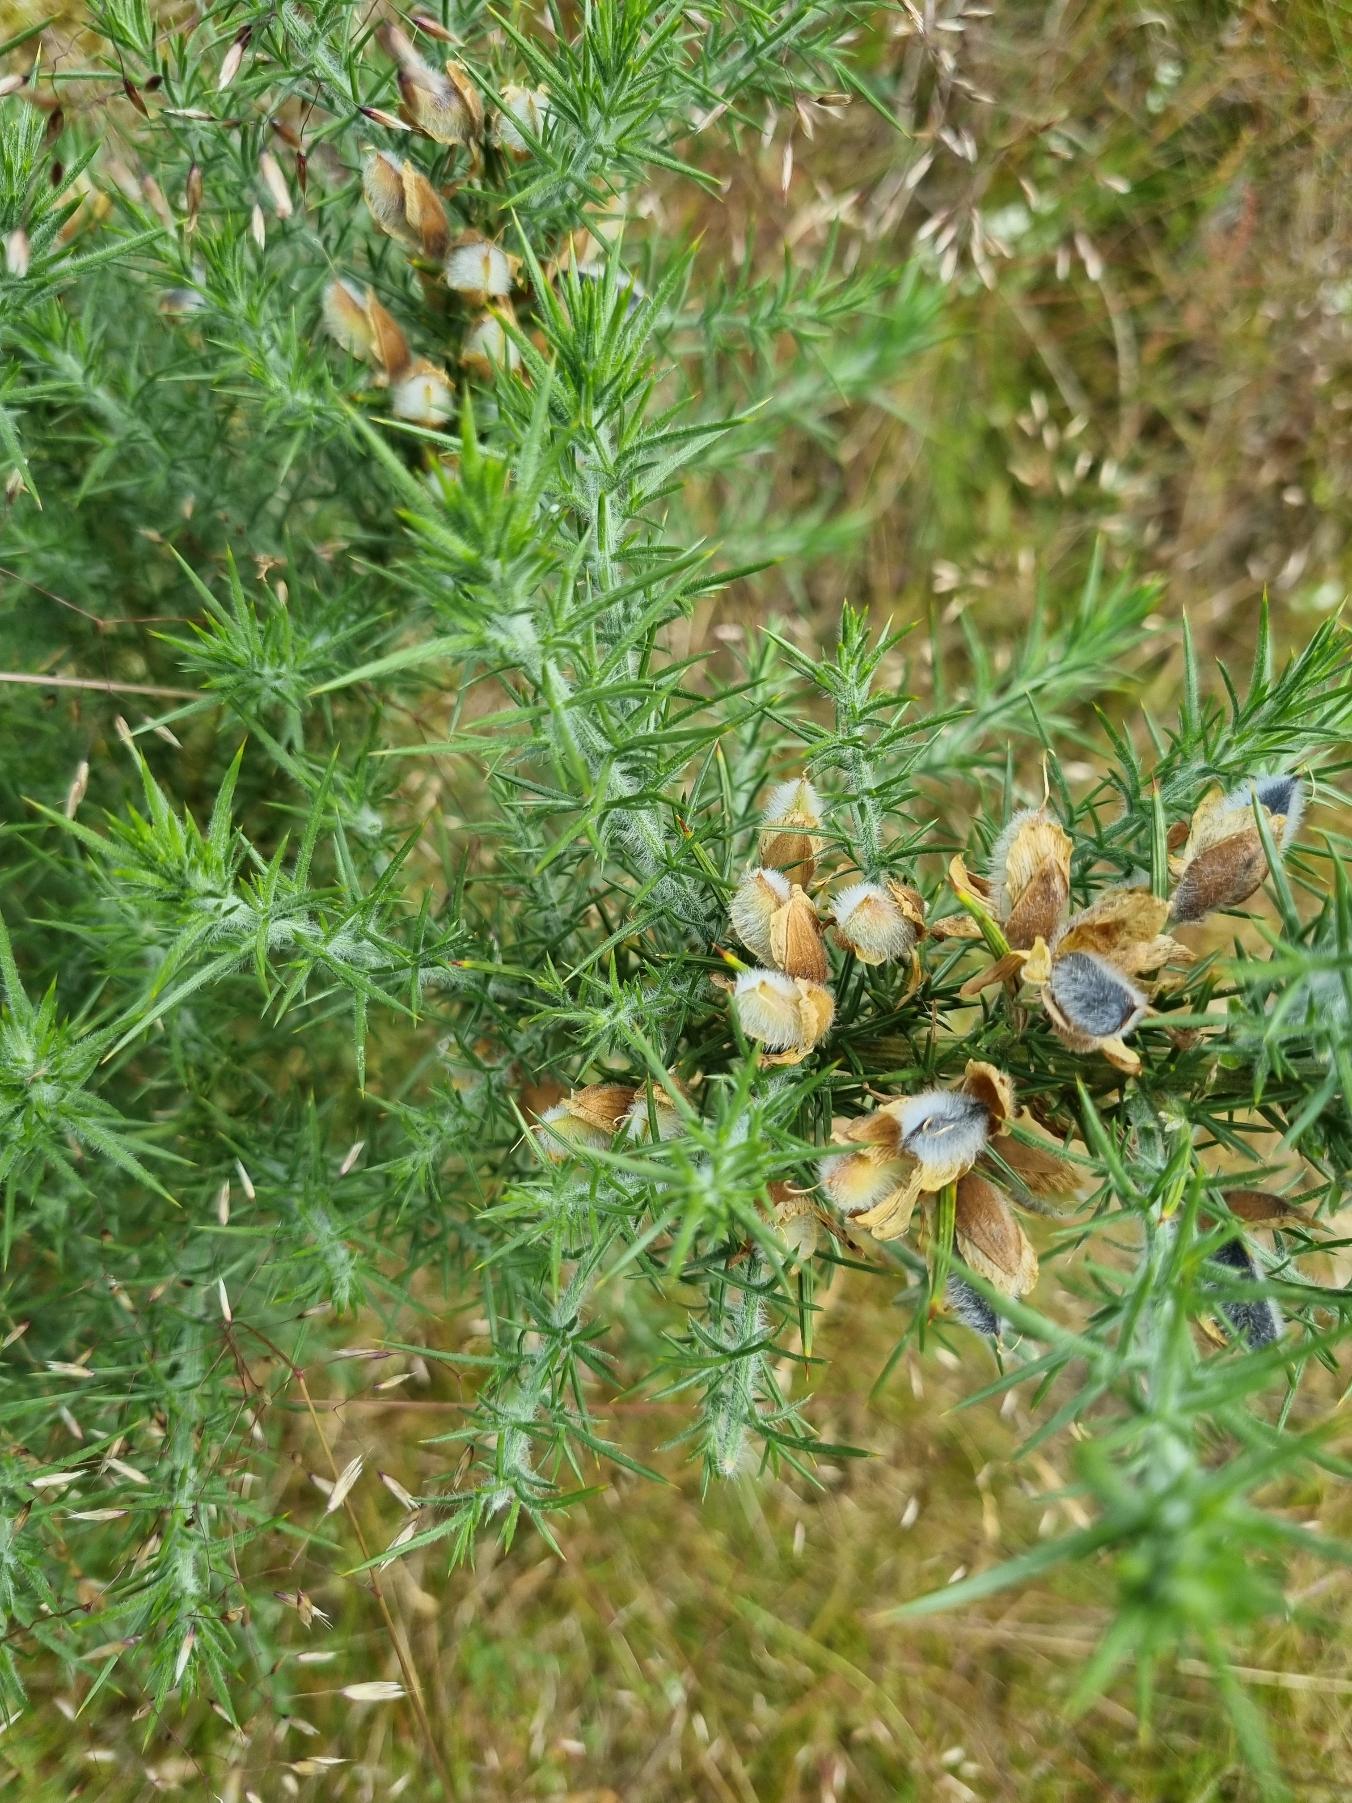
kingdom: Plantae
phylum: Tracheophyta
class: Magnoliopsida
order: Fabales
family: Fabaceae
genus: Ulex
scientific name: Ulex europaeus
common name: Tornblad
